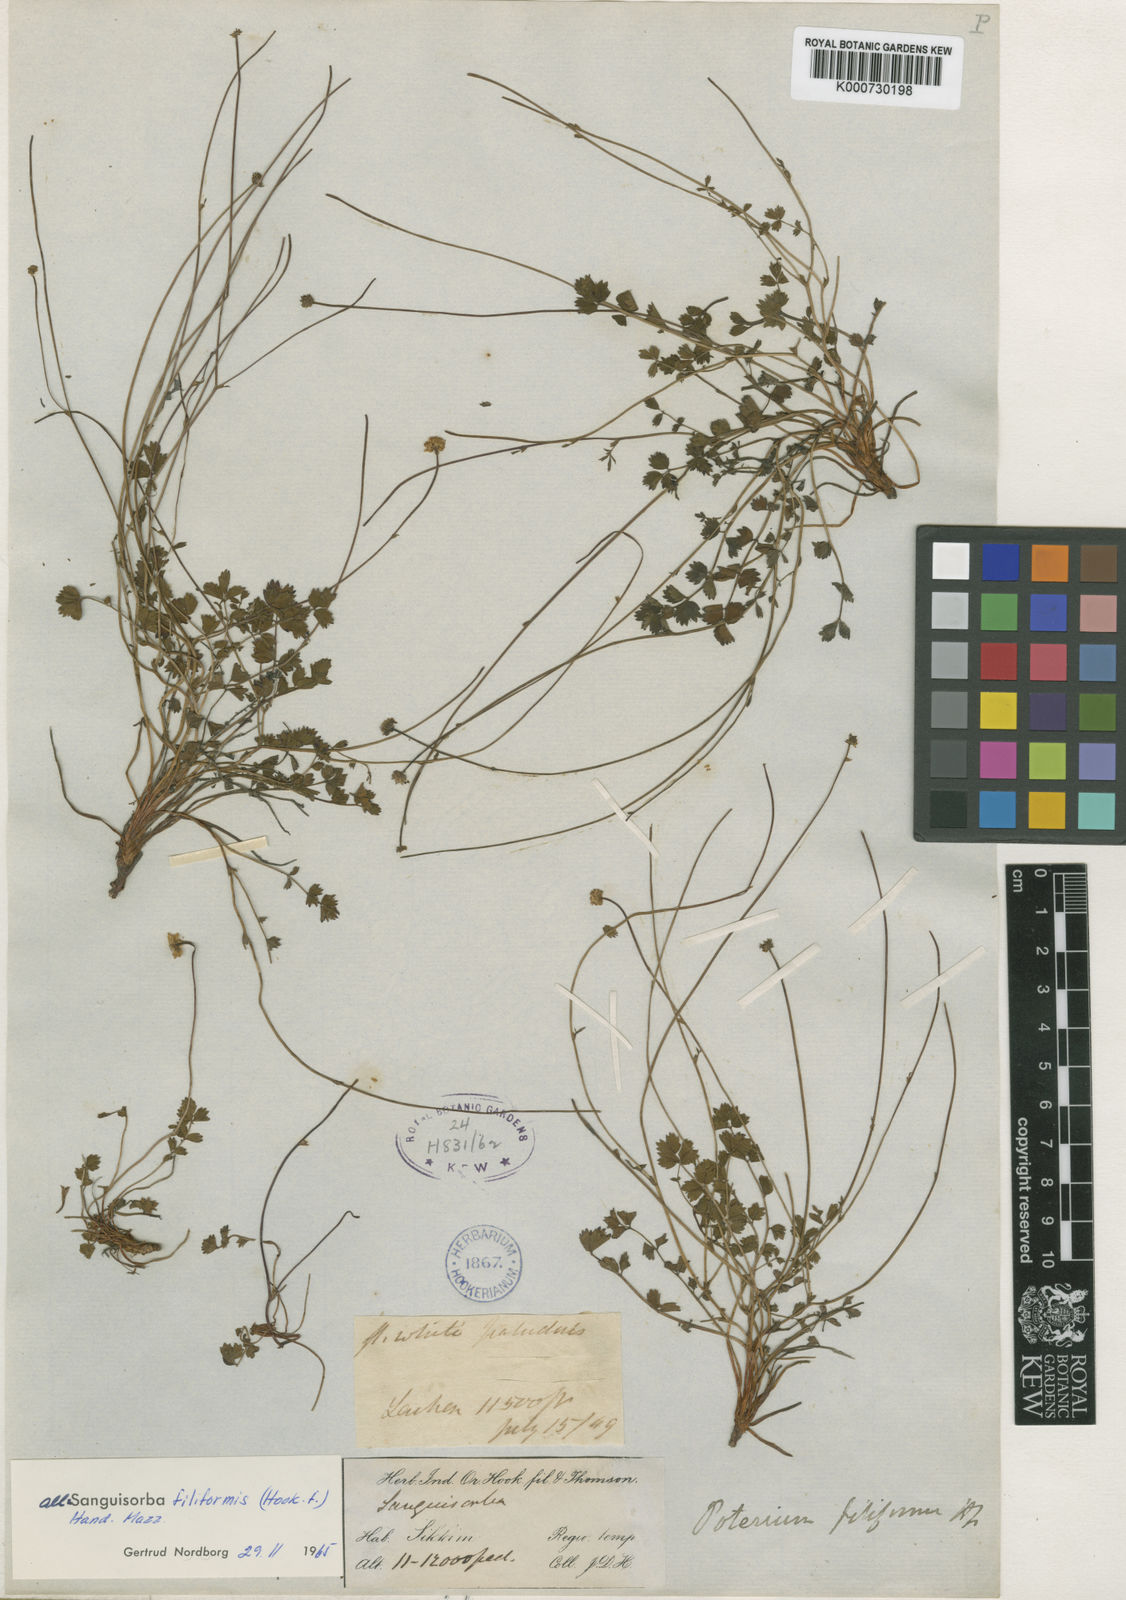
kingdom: Plantae
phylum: Tracheophyta
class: Magnoliopsida
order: Rosales
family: Rosaceae
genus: Poterium
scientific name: Poterium filiforme
